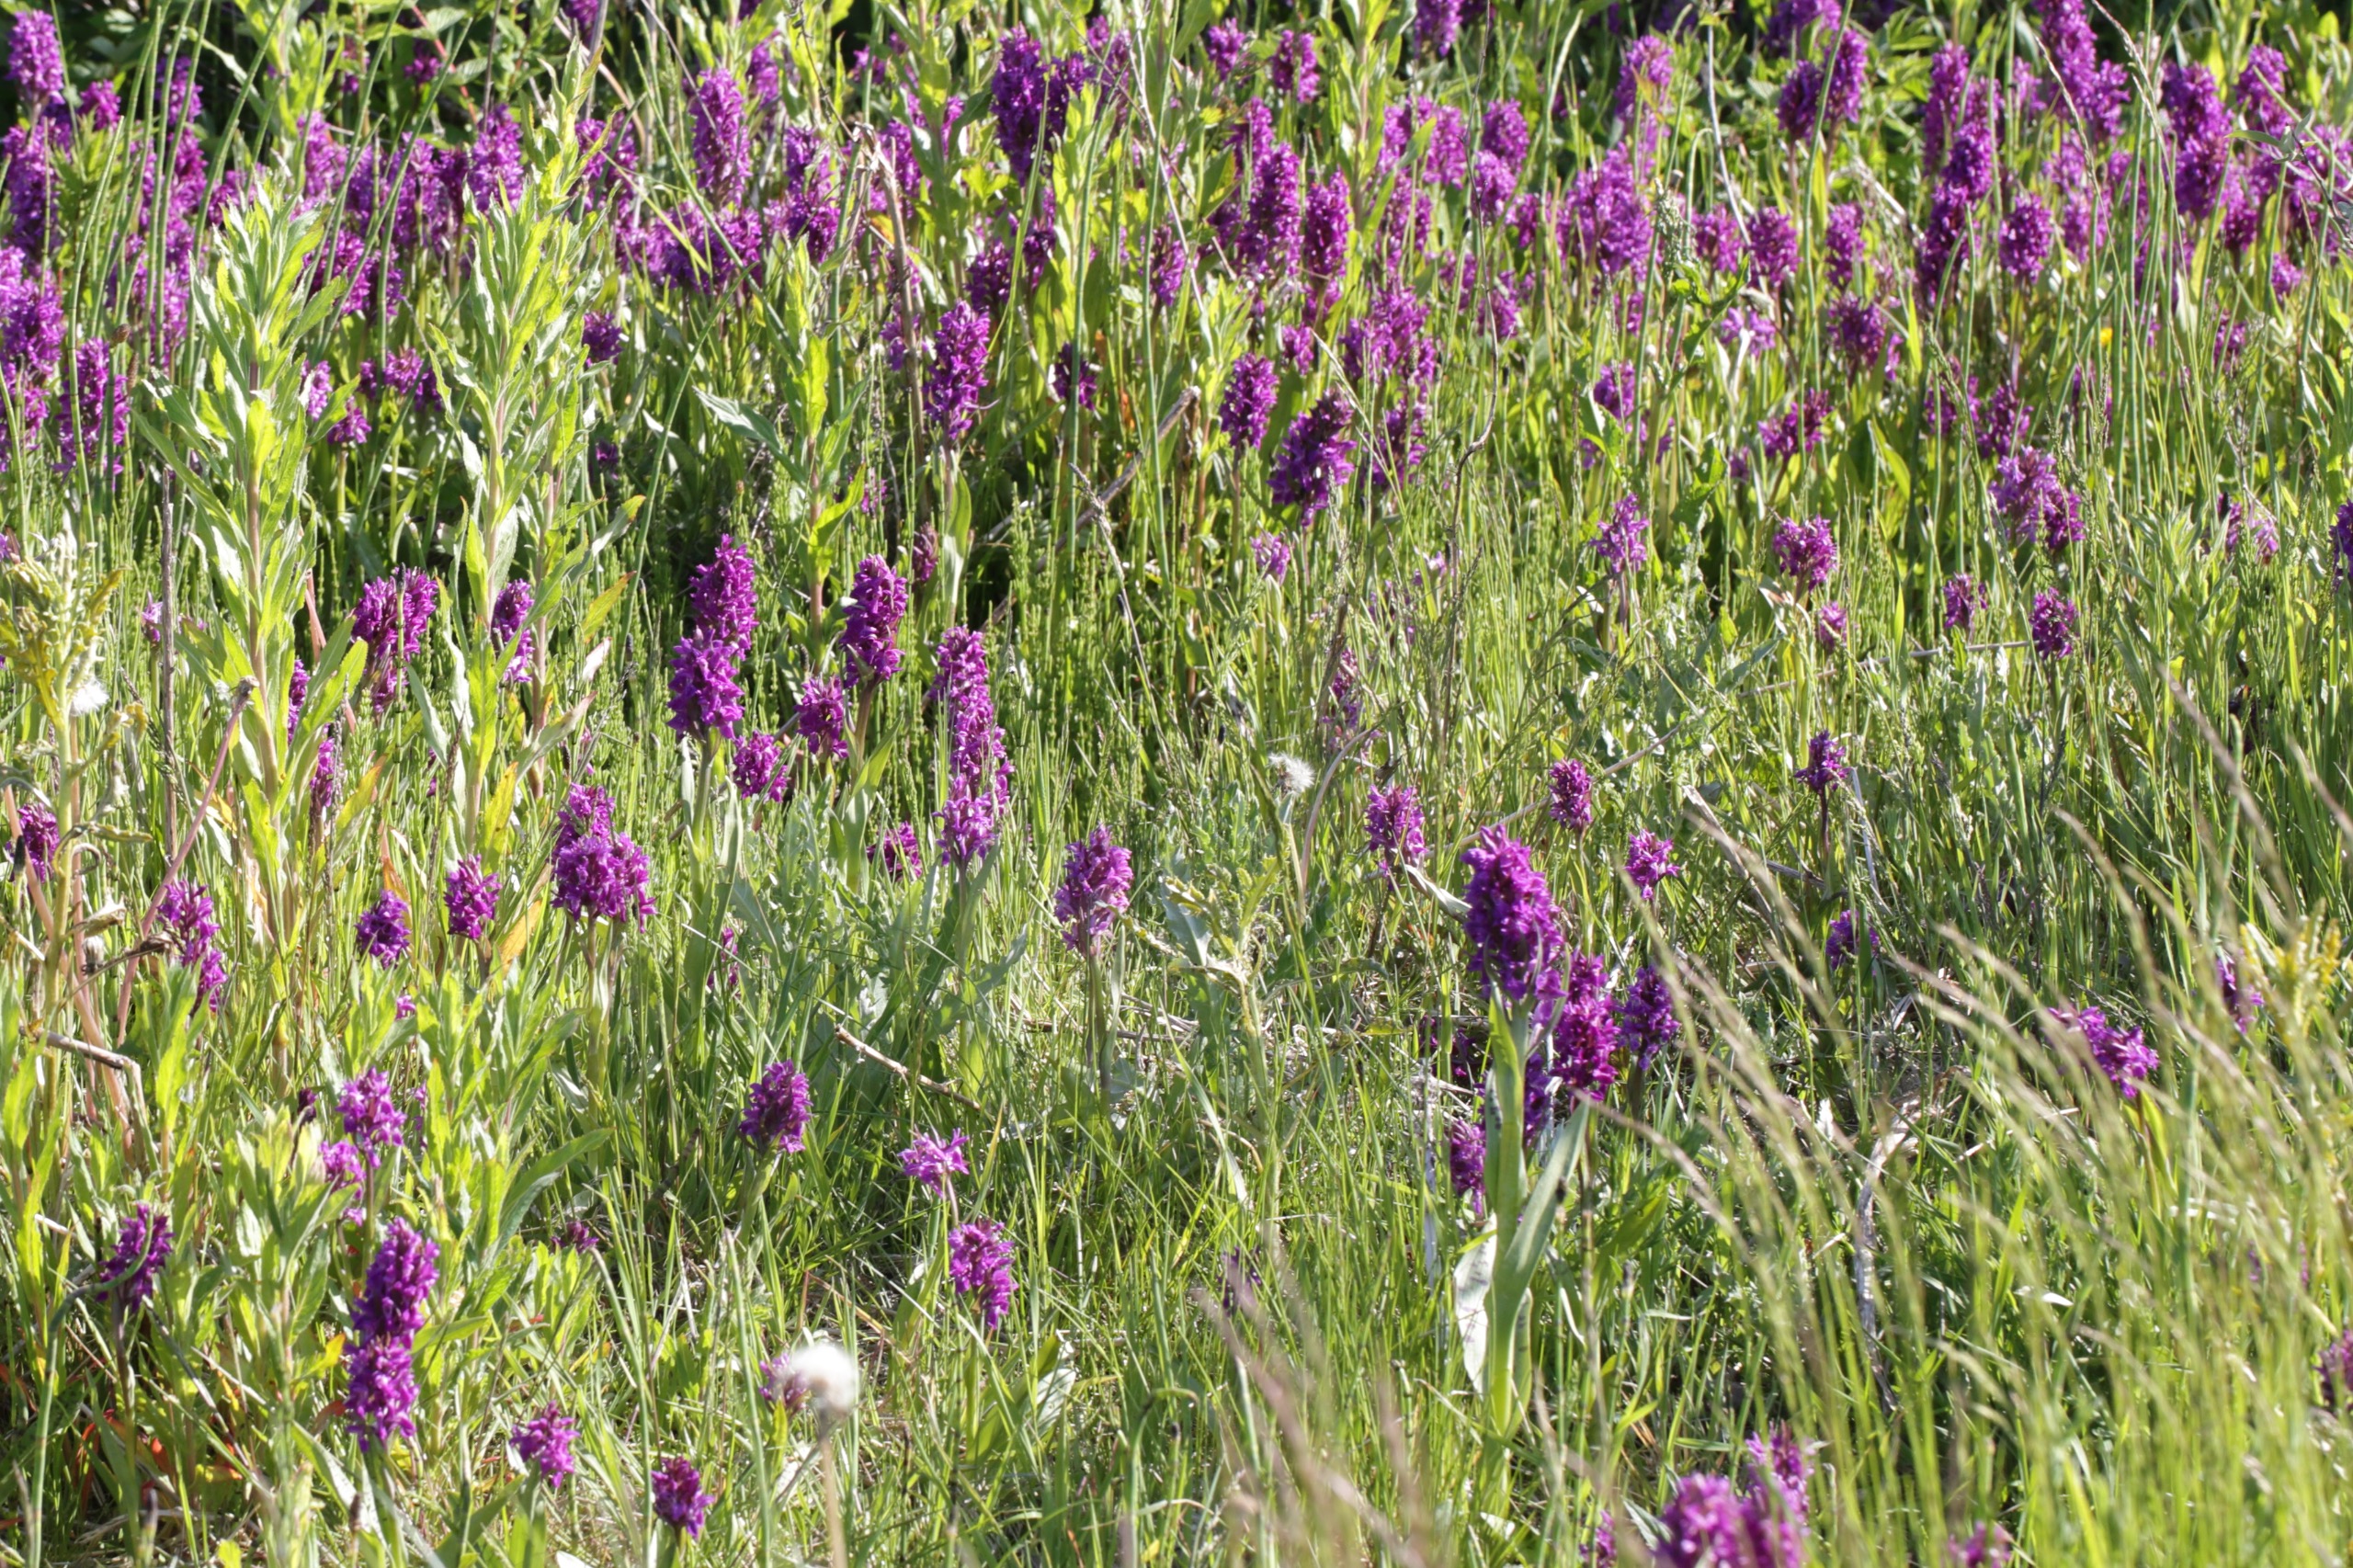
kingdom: Plantae
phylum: Tracheophyta
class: Liliopsida
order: Asparagales
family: Orchidaceae
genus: Dactylorhiza
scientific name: Dactylorhiza majalis
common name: Maj-gøgeurt
